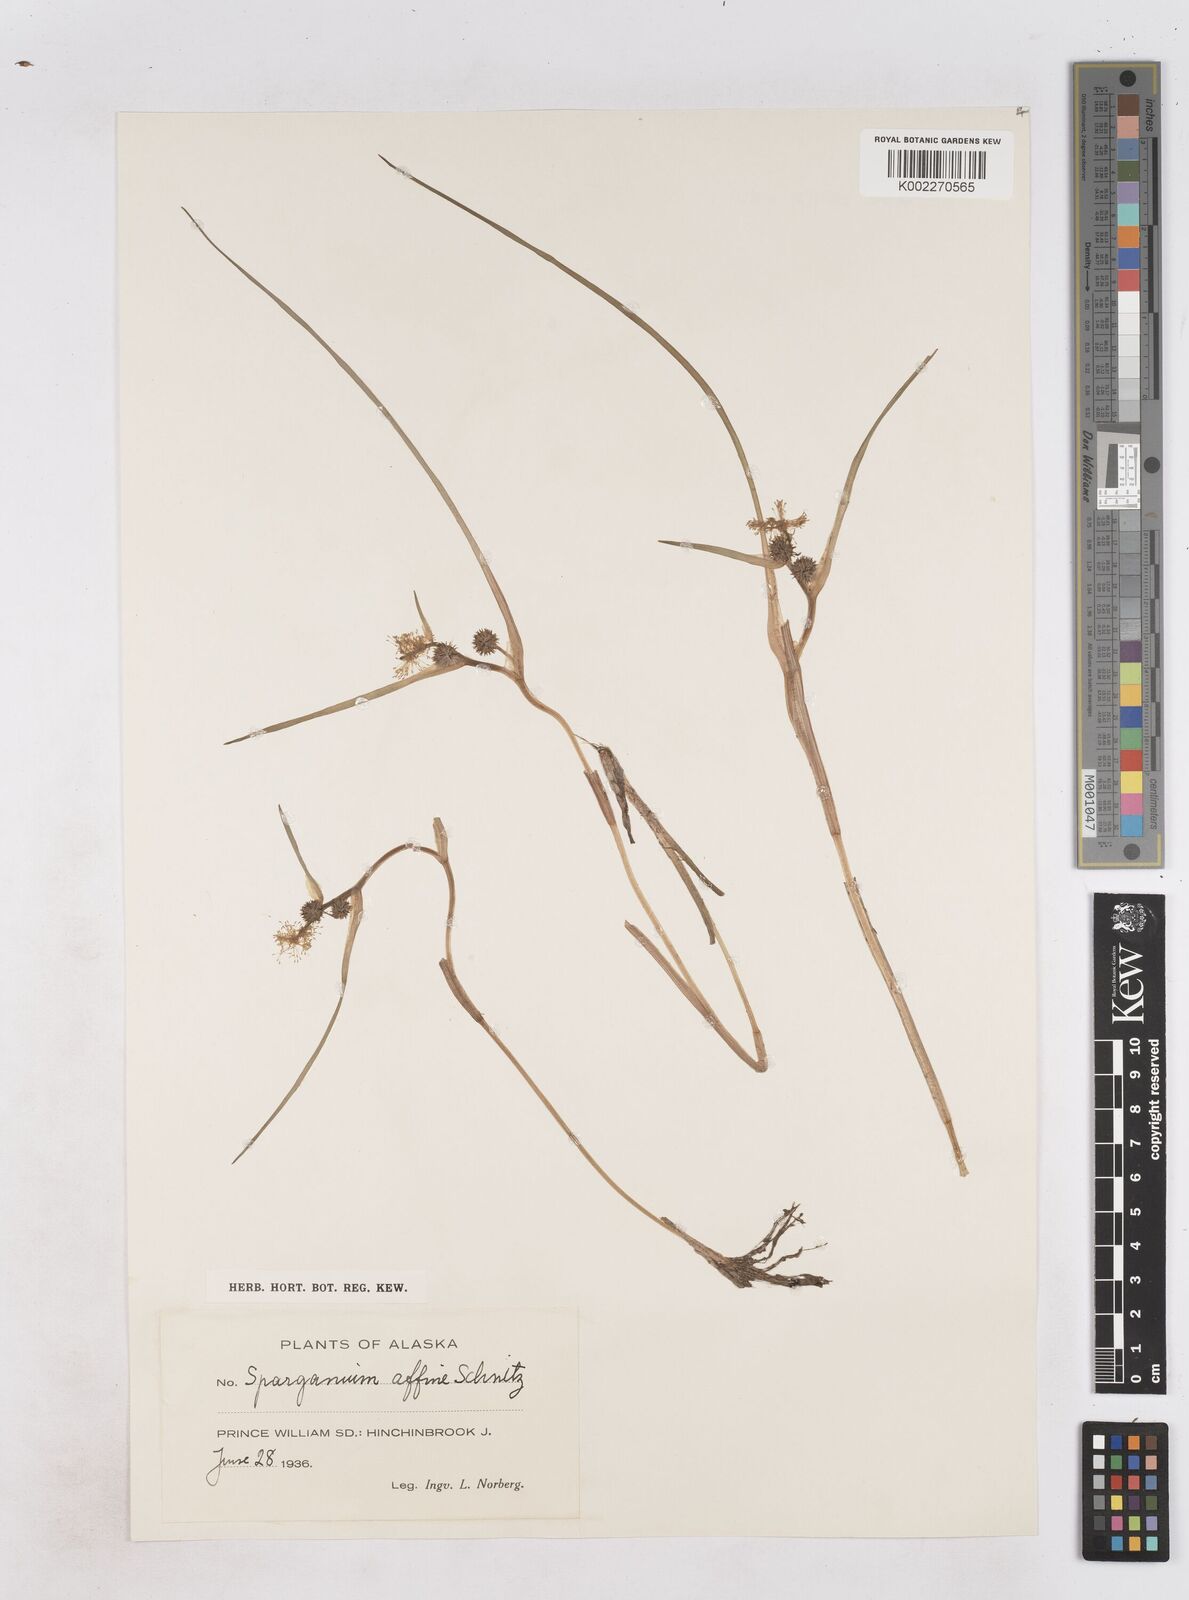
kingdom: Plantae
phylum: Tracheophyta
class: Liliopsida
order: Poales
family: Typhaceae
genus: Sparganium
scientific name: Sparganium angustifolium
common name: Floating bur-reed
